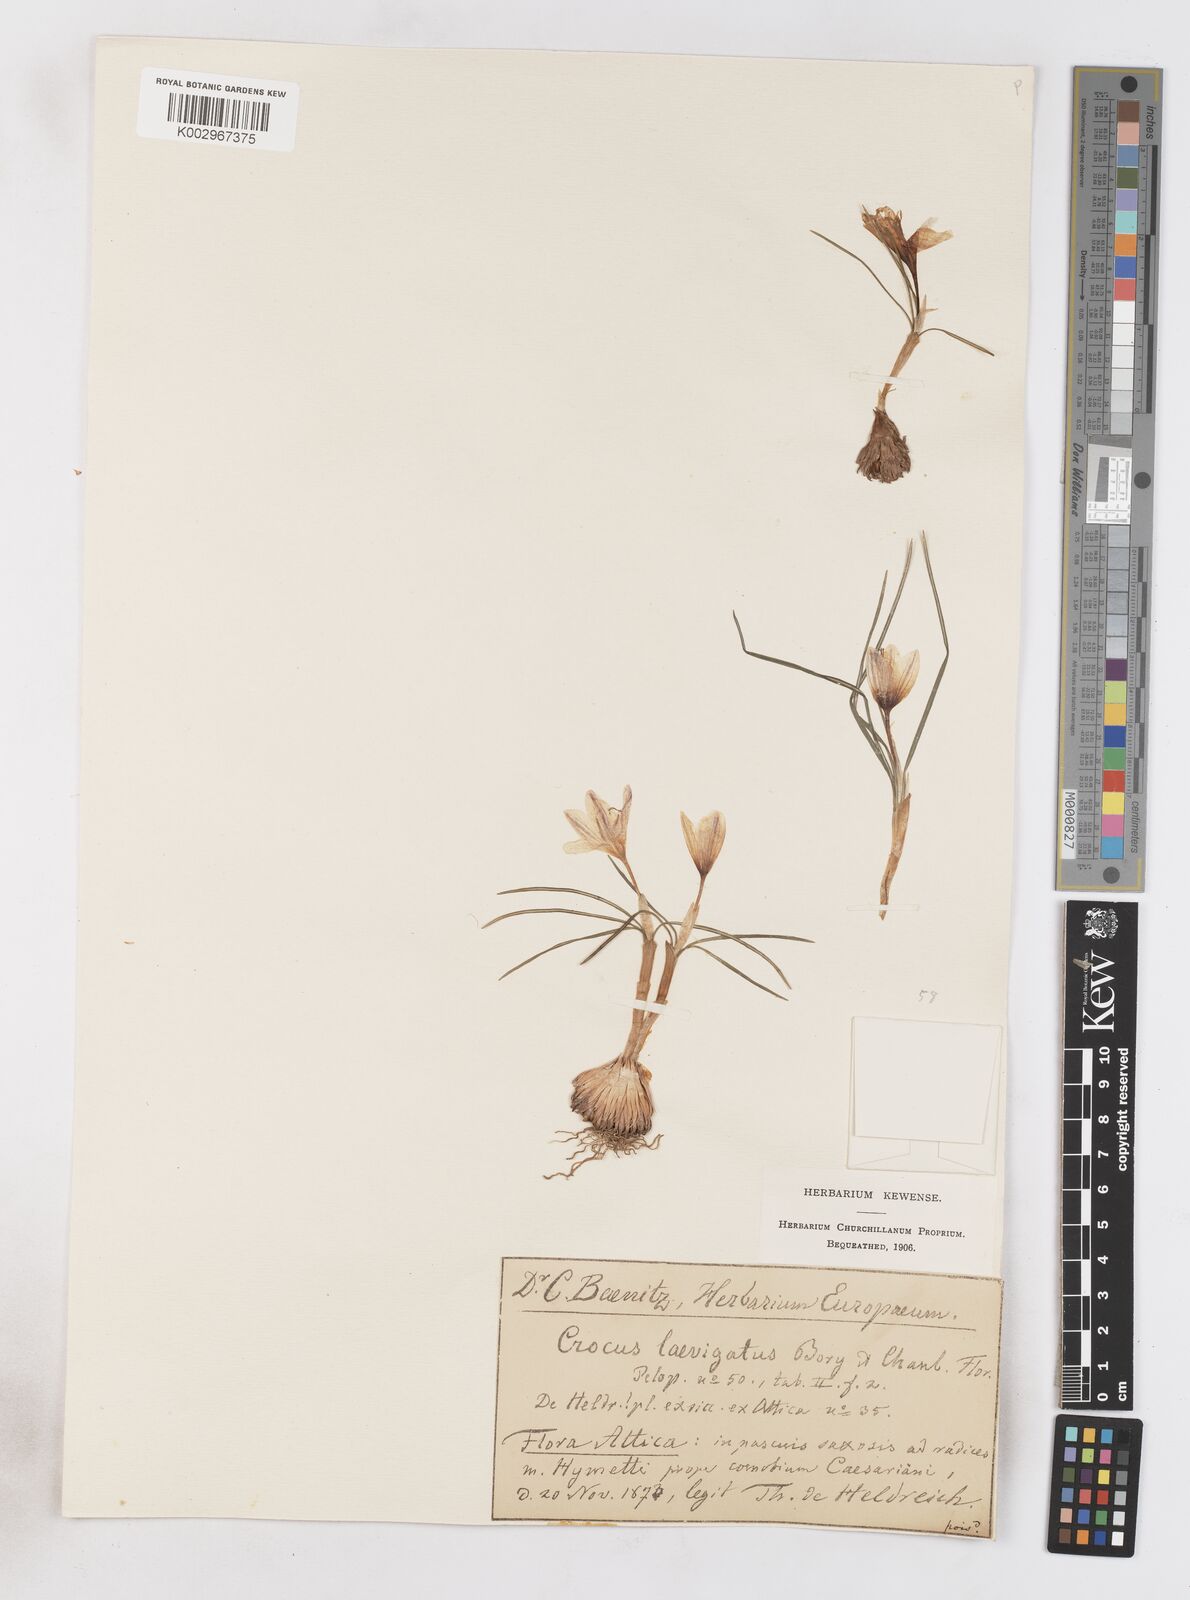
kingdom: Plantae
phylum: Tracheophyta
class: Liliopsida
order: Asparagales
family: Iridaceae
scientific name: Iridaceae
